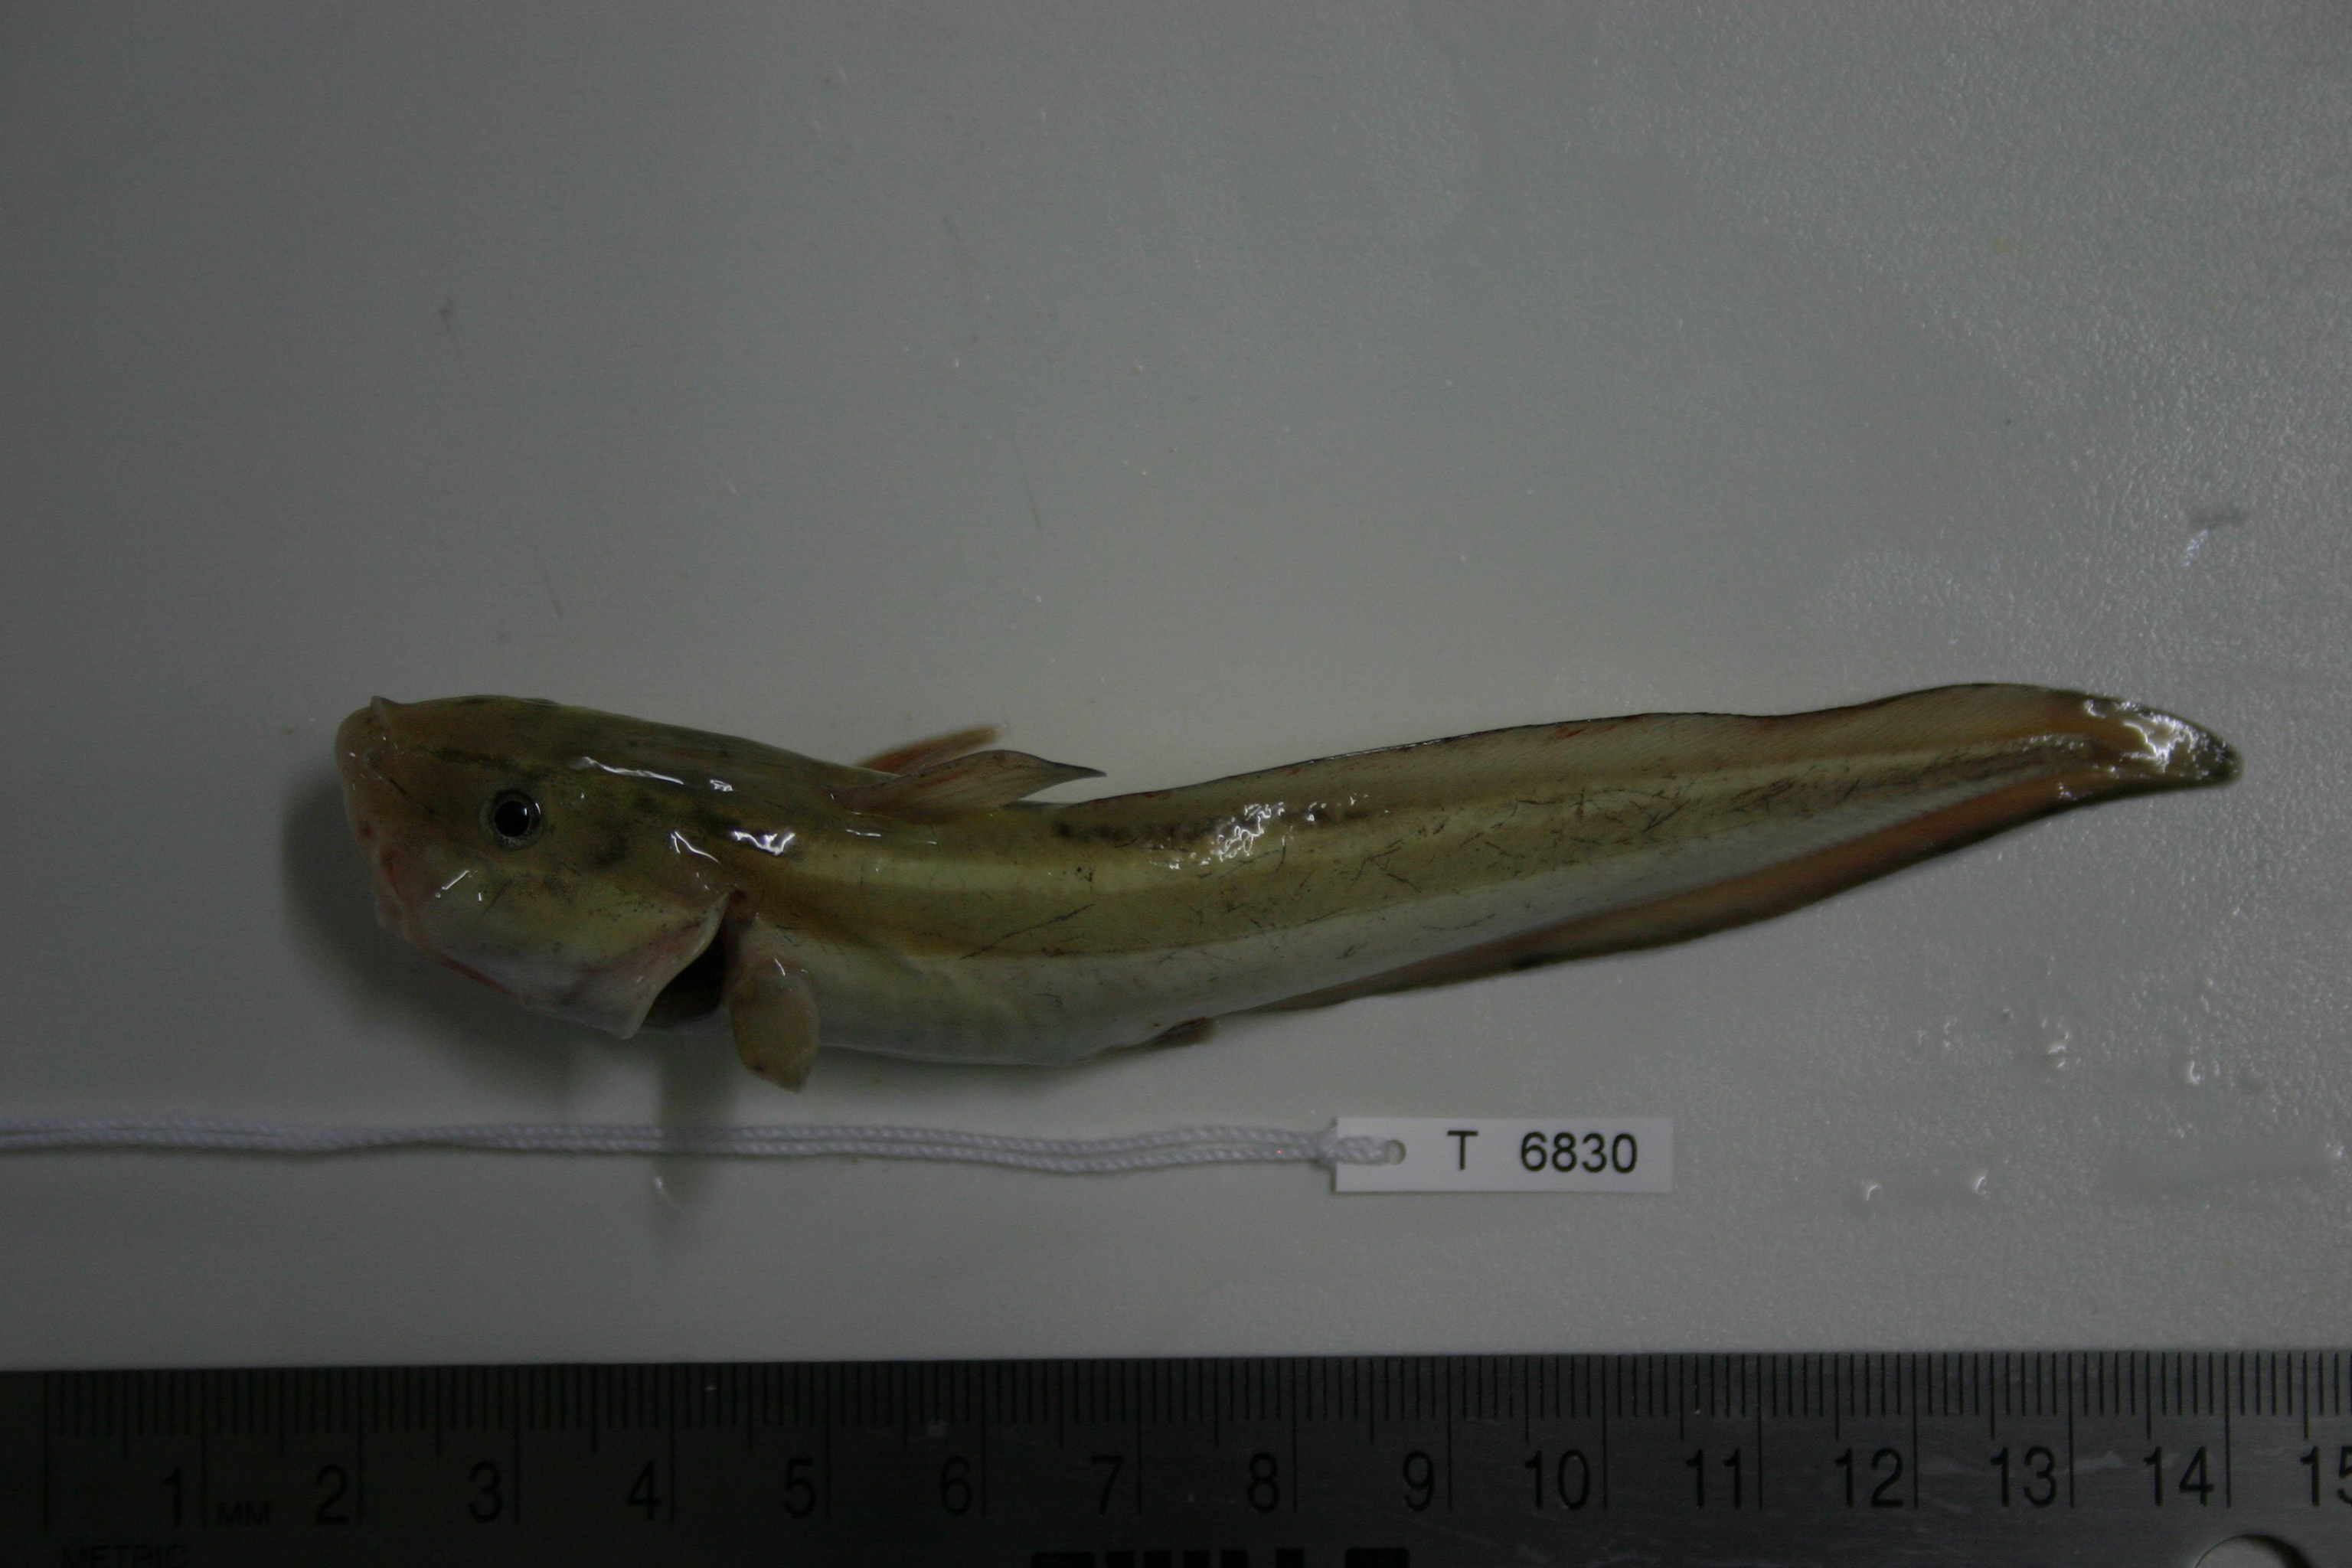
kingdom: Animalia
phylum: Chordata
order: Siluriformes
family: Plotosidae
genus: Plotosus
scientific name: Plotosus lineatus
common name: Striped eel catfish
